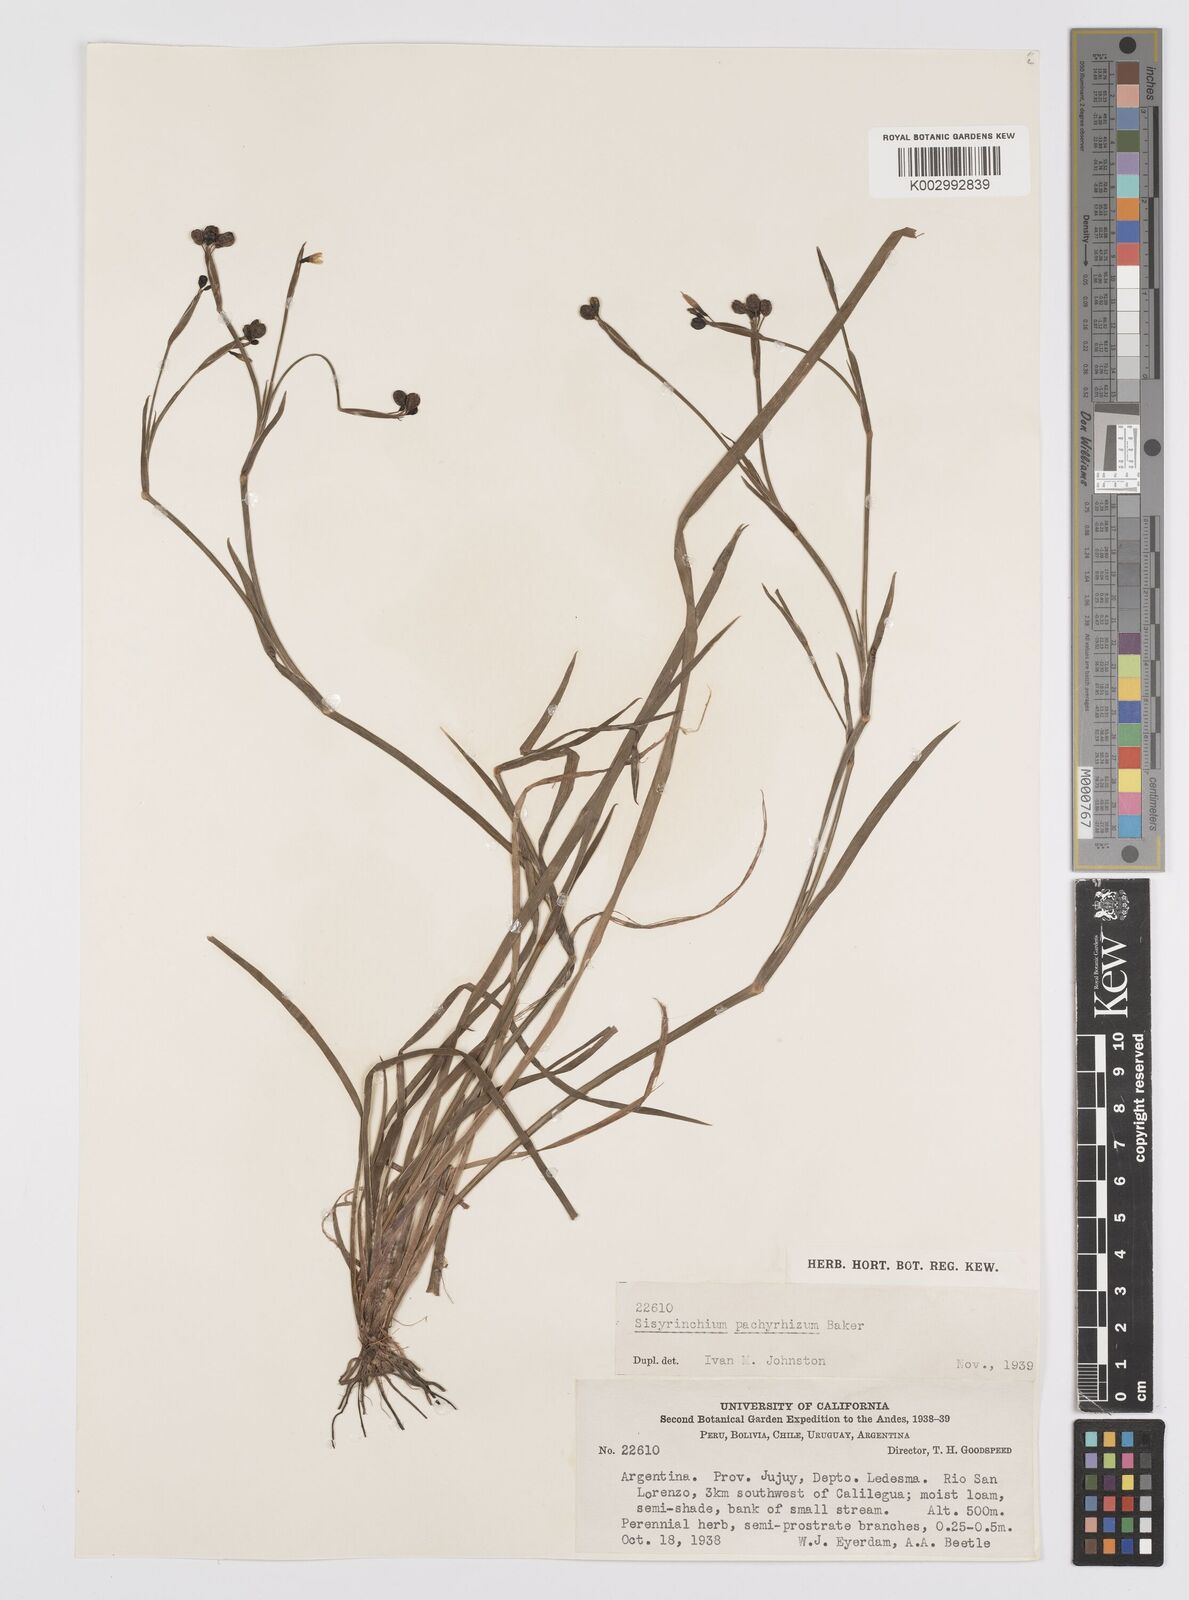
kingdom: Plantae
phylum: Tracheophyta
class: Liliopsida
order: Asparagales
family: Iridaceae
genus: Sisyrinchium
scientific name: Sisyrinchium pachyrhizum
